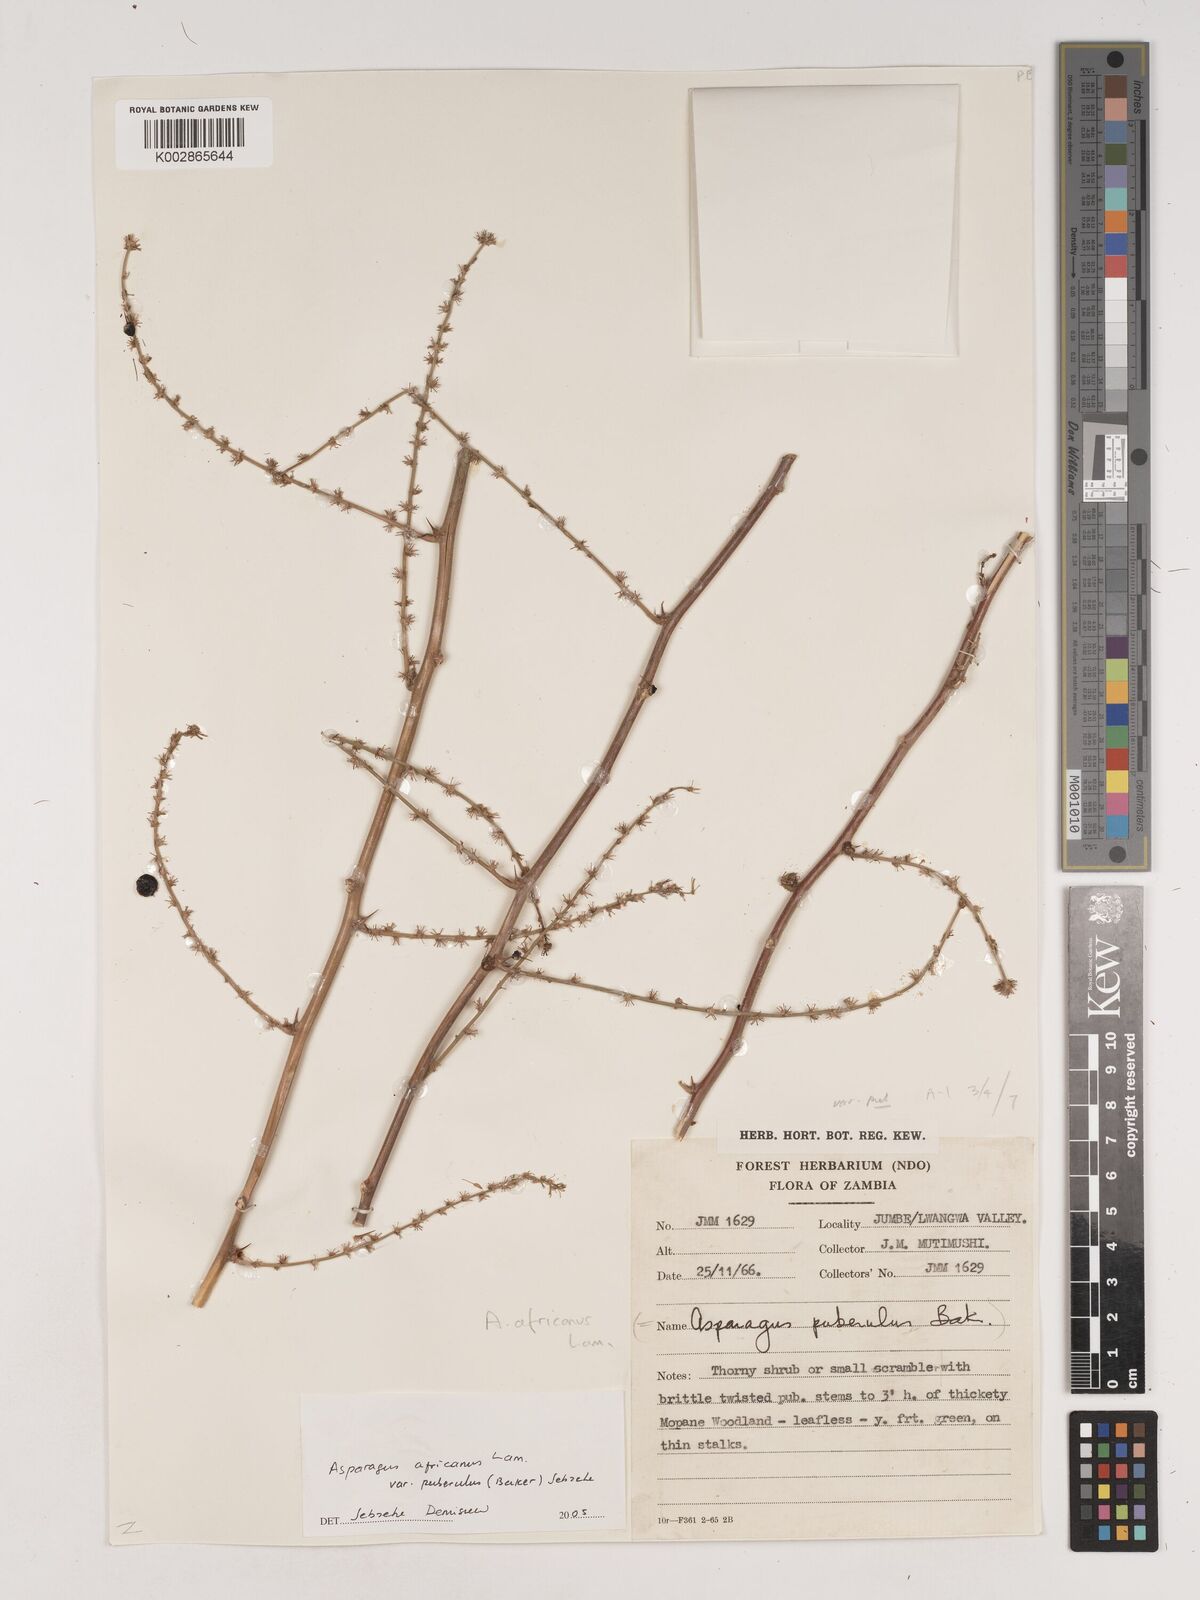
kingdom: Plantae
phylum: Tracheophyta
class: Liliopsida
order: Asparagales
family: Asparagaceae
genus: Asparagus
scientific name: Asparagus africanus
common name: Asparagus-fern
